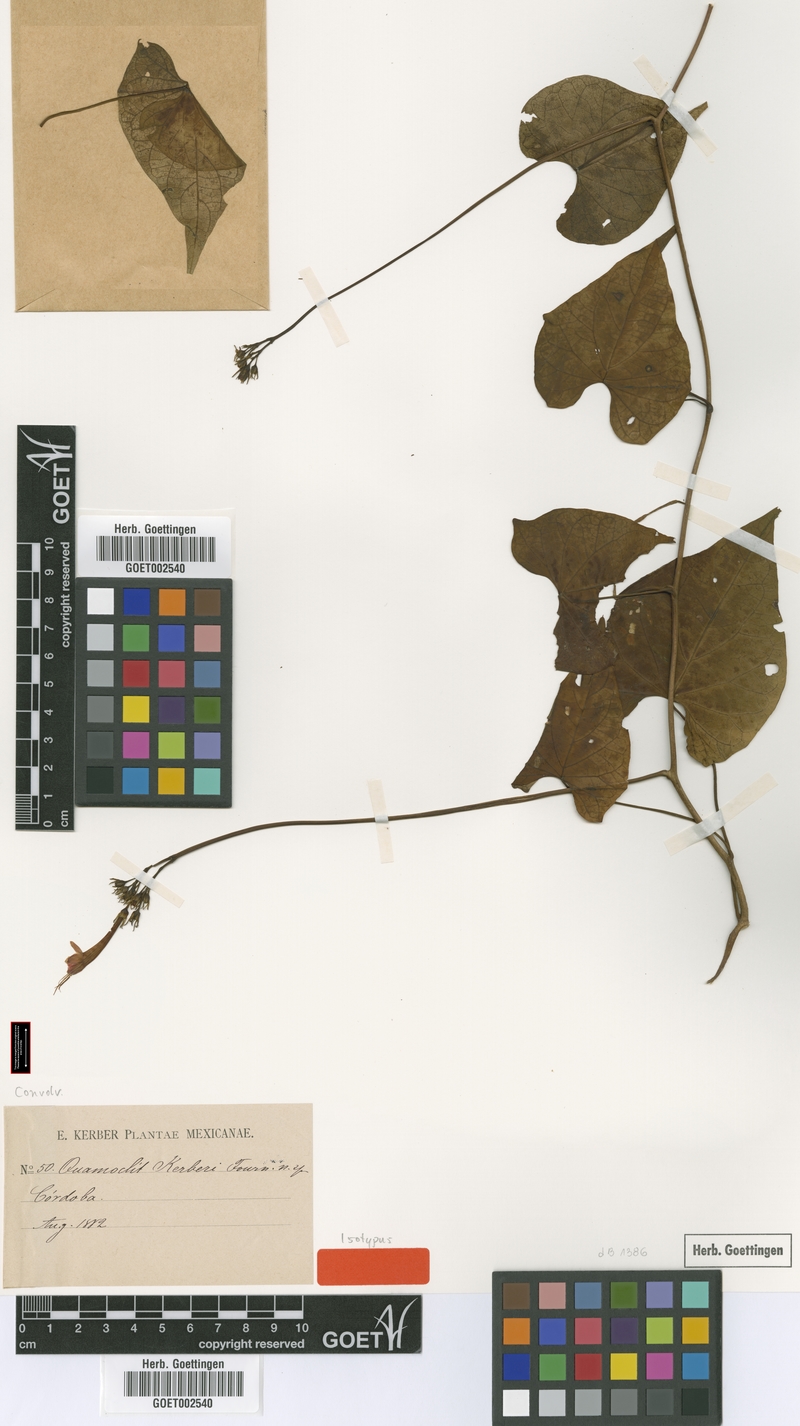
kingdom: Plantae
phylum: Tracheophyta
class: Magnoliopsida
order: Solanales
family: Convolvulaceae
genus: Ipomoea
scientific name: Ipomoea hastigera
